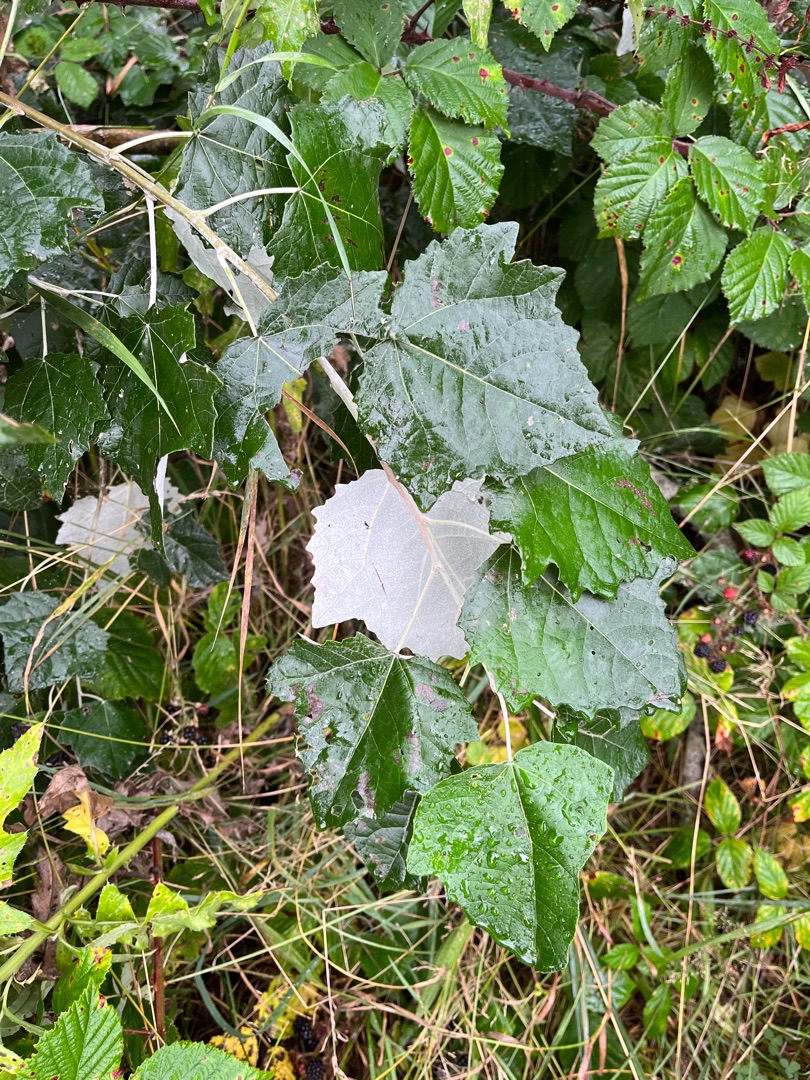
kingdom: Plantae
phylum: Tracheophyta
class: Magnoliopsida
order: Malpighiales
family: Salicaceae
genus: Populus
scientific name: Populus alba
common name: Sølv-poppel
